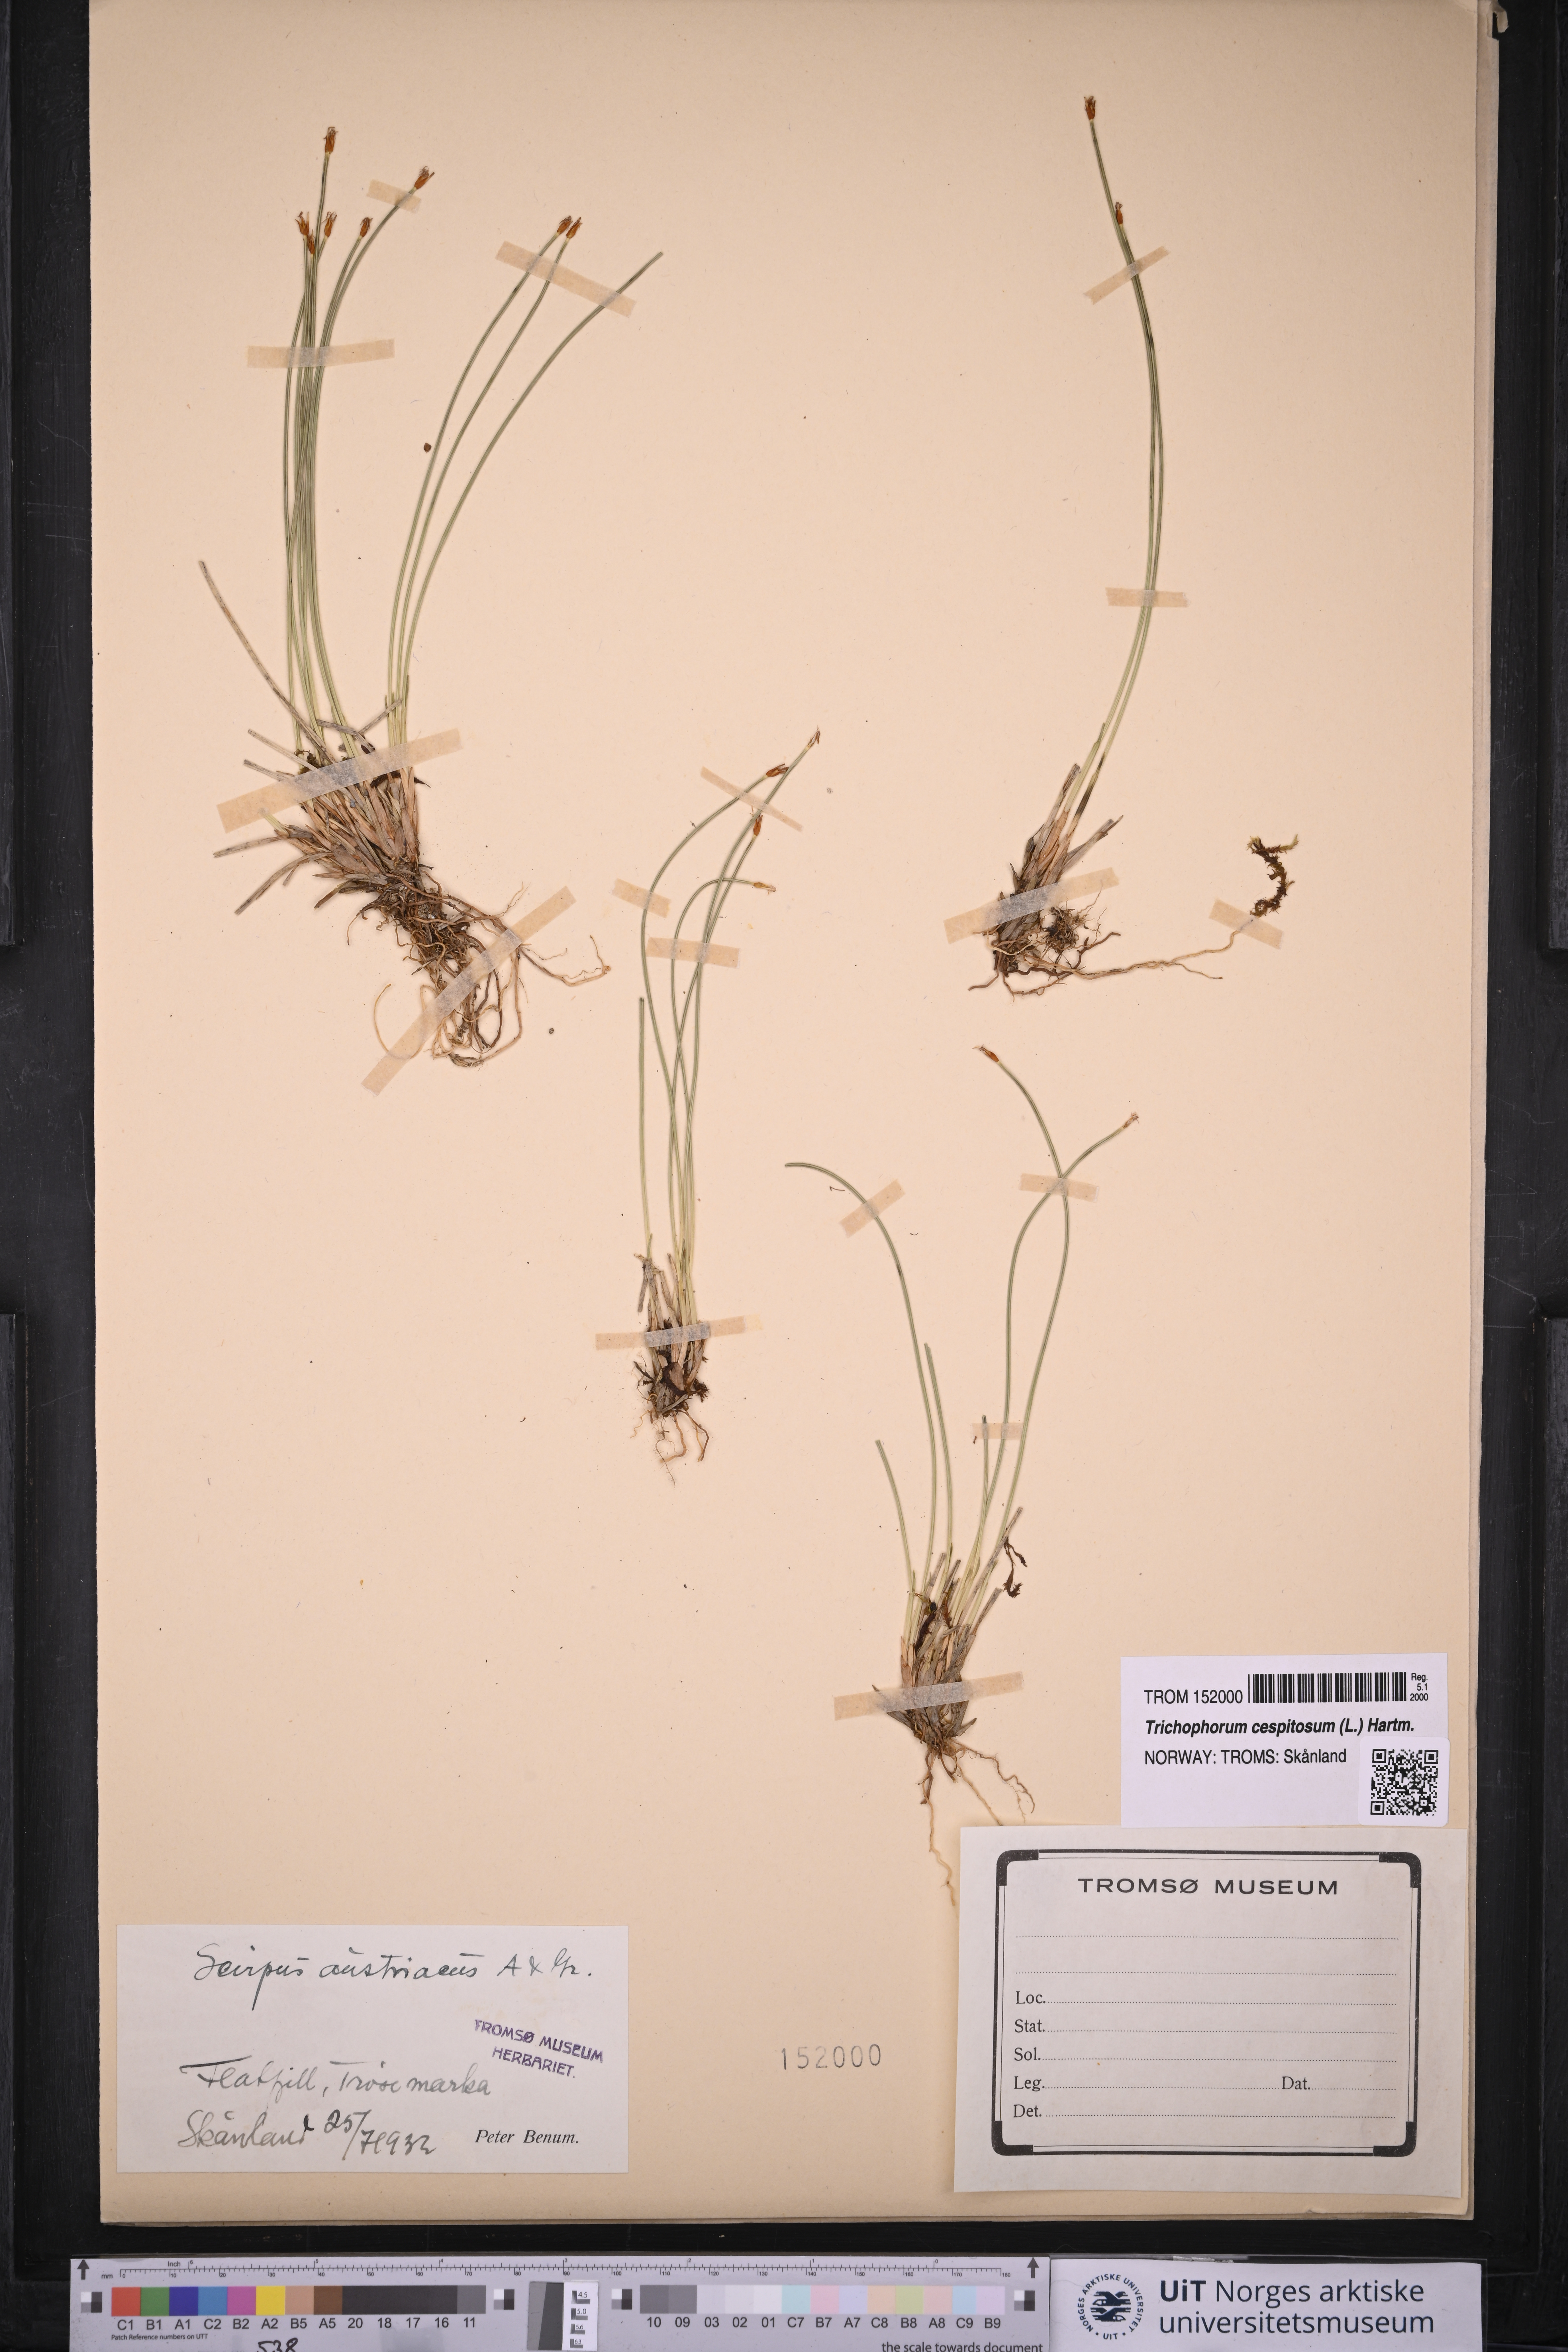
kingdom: Plantae
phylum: Tracheophyta
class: Liliopsida
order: Poales
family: Cyperaceae
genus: Trichophorum
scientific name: Trichophorum cespitosum
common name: Cespitose bulrush
